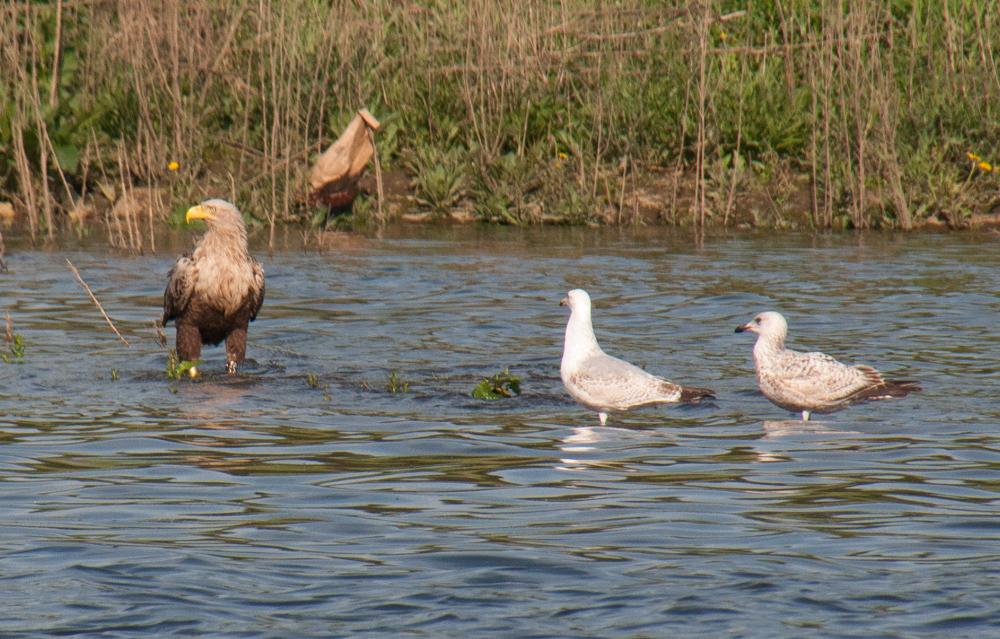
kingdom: Animalia
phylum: Chordata
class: Aves
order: Accipitriformes
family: Accipitridae
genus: Haliaeetus
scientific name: Haliaeetus albicilla
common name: White-tailed eagle
